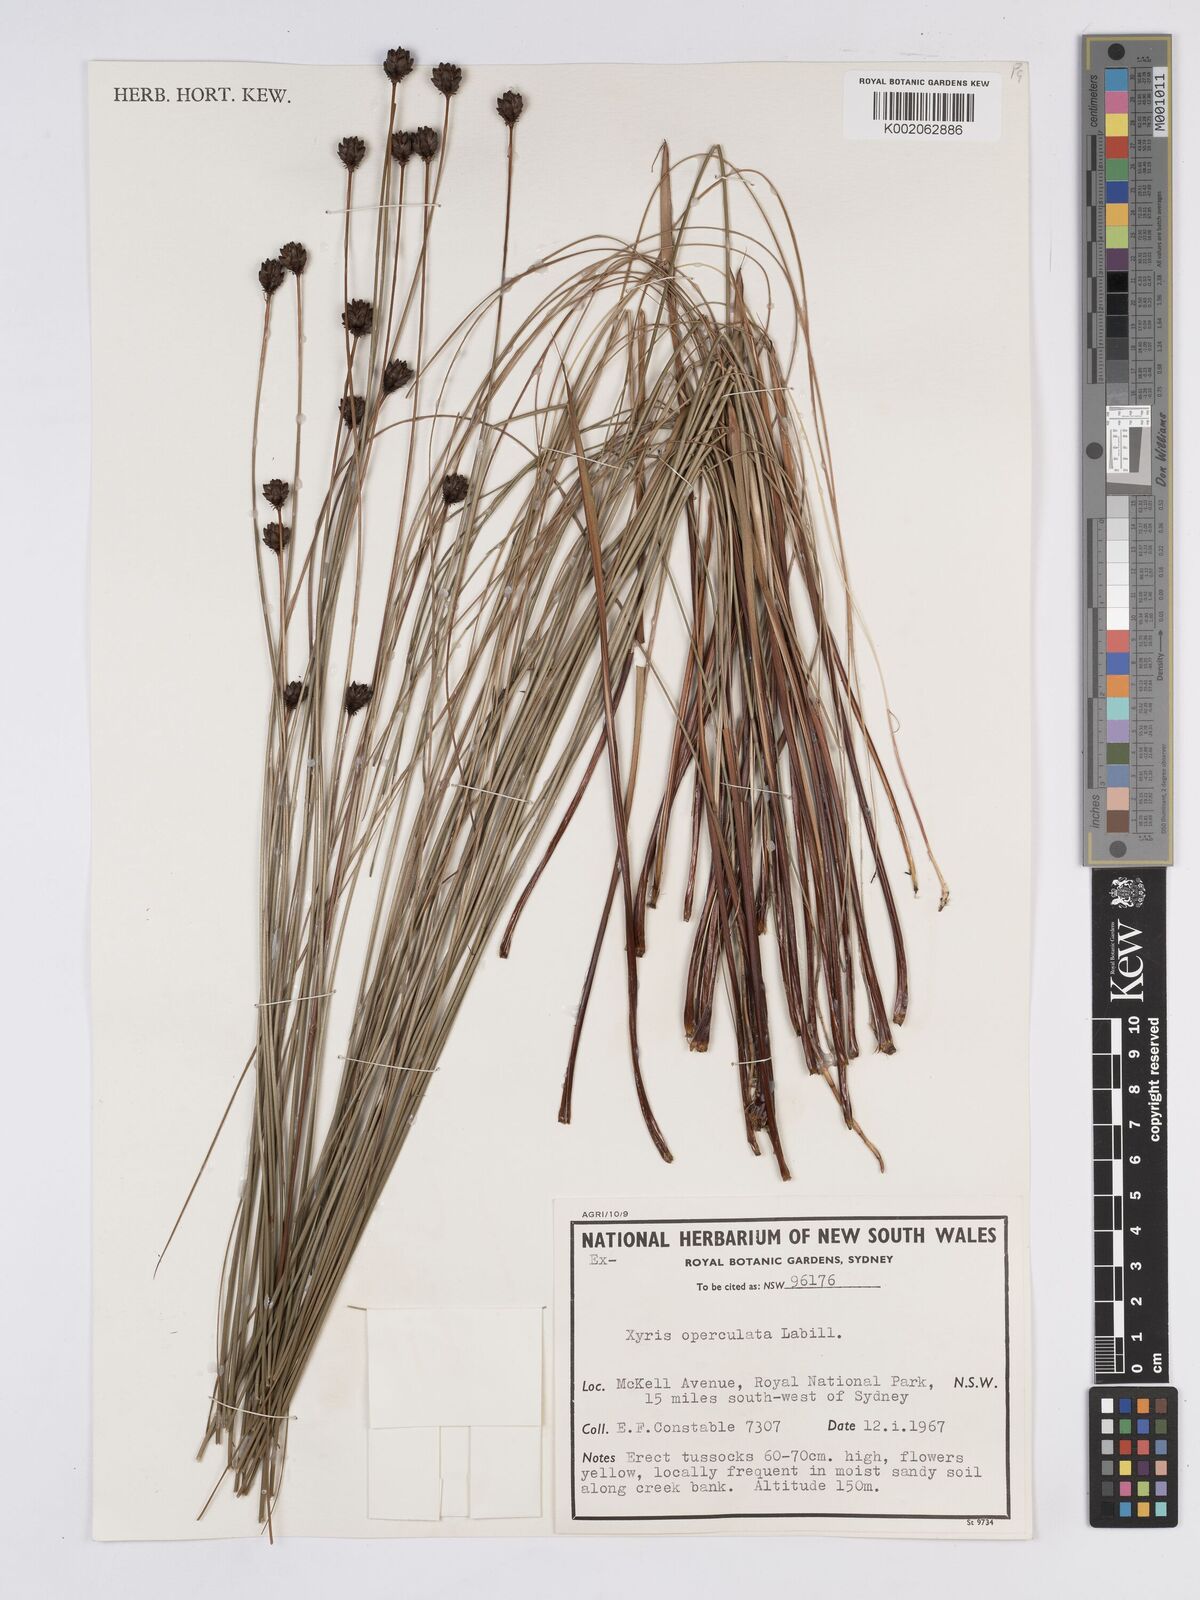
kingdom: Plantae
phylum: Tracheophyta
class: Liliopsida
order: Poales
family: Xyridaceae
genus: Xyris
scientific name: Xyris operculata
